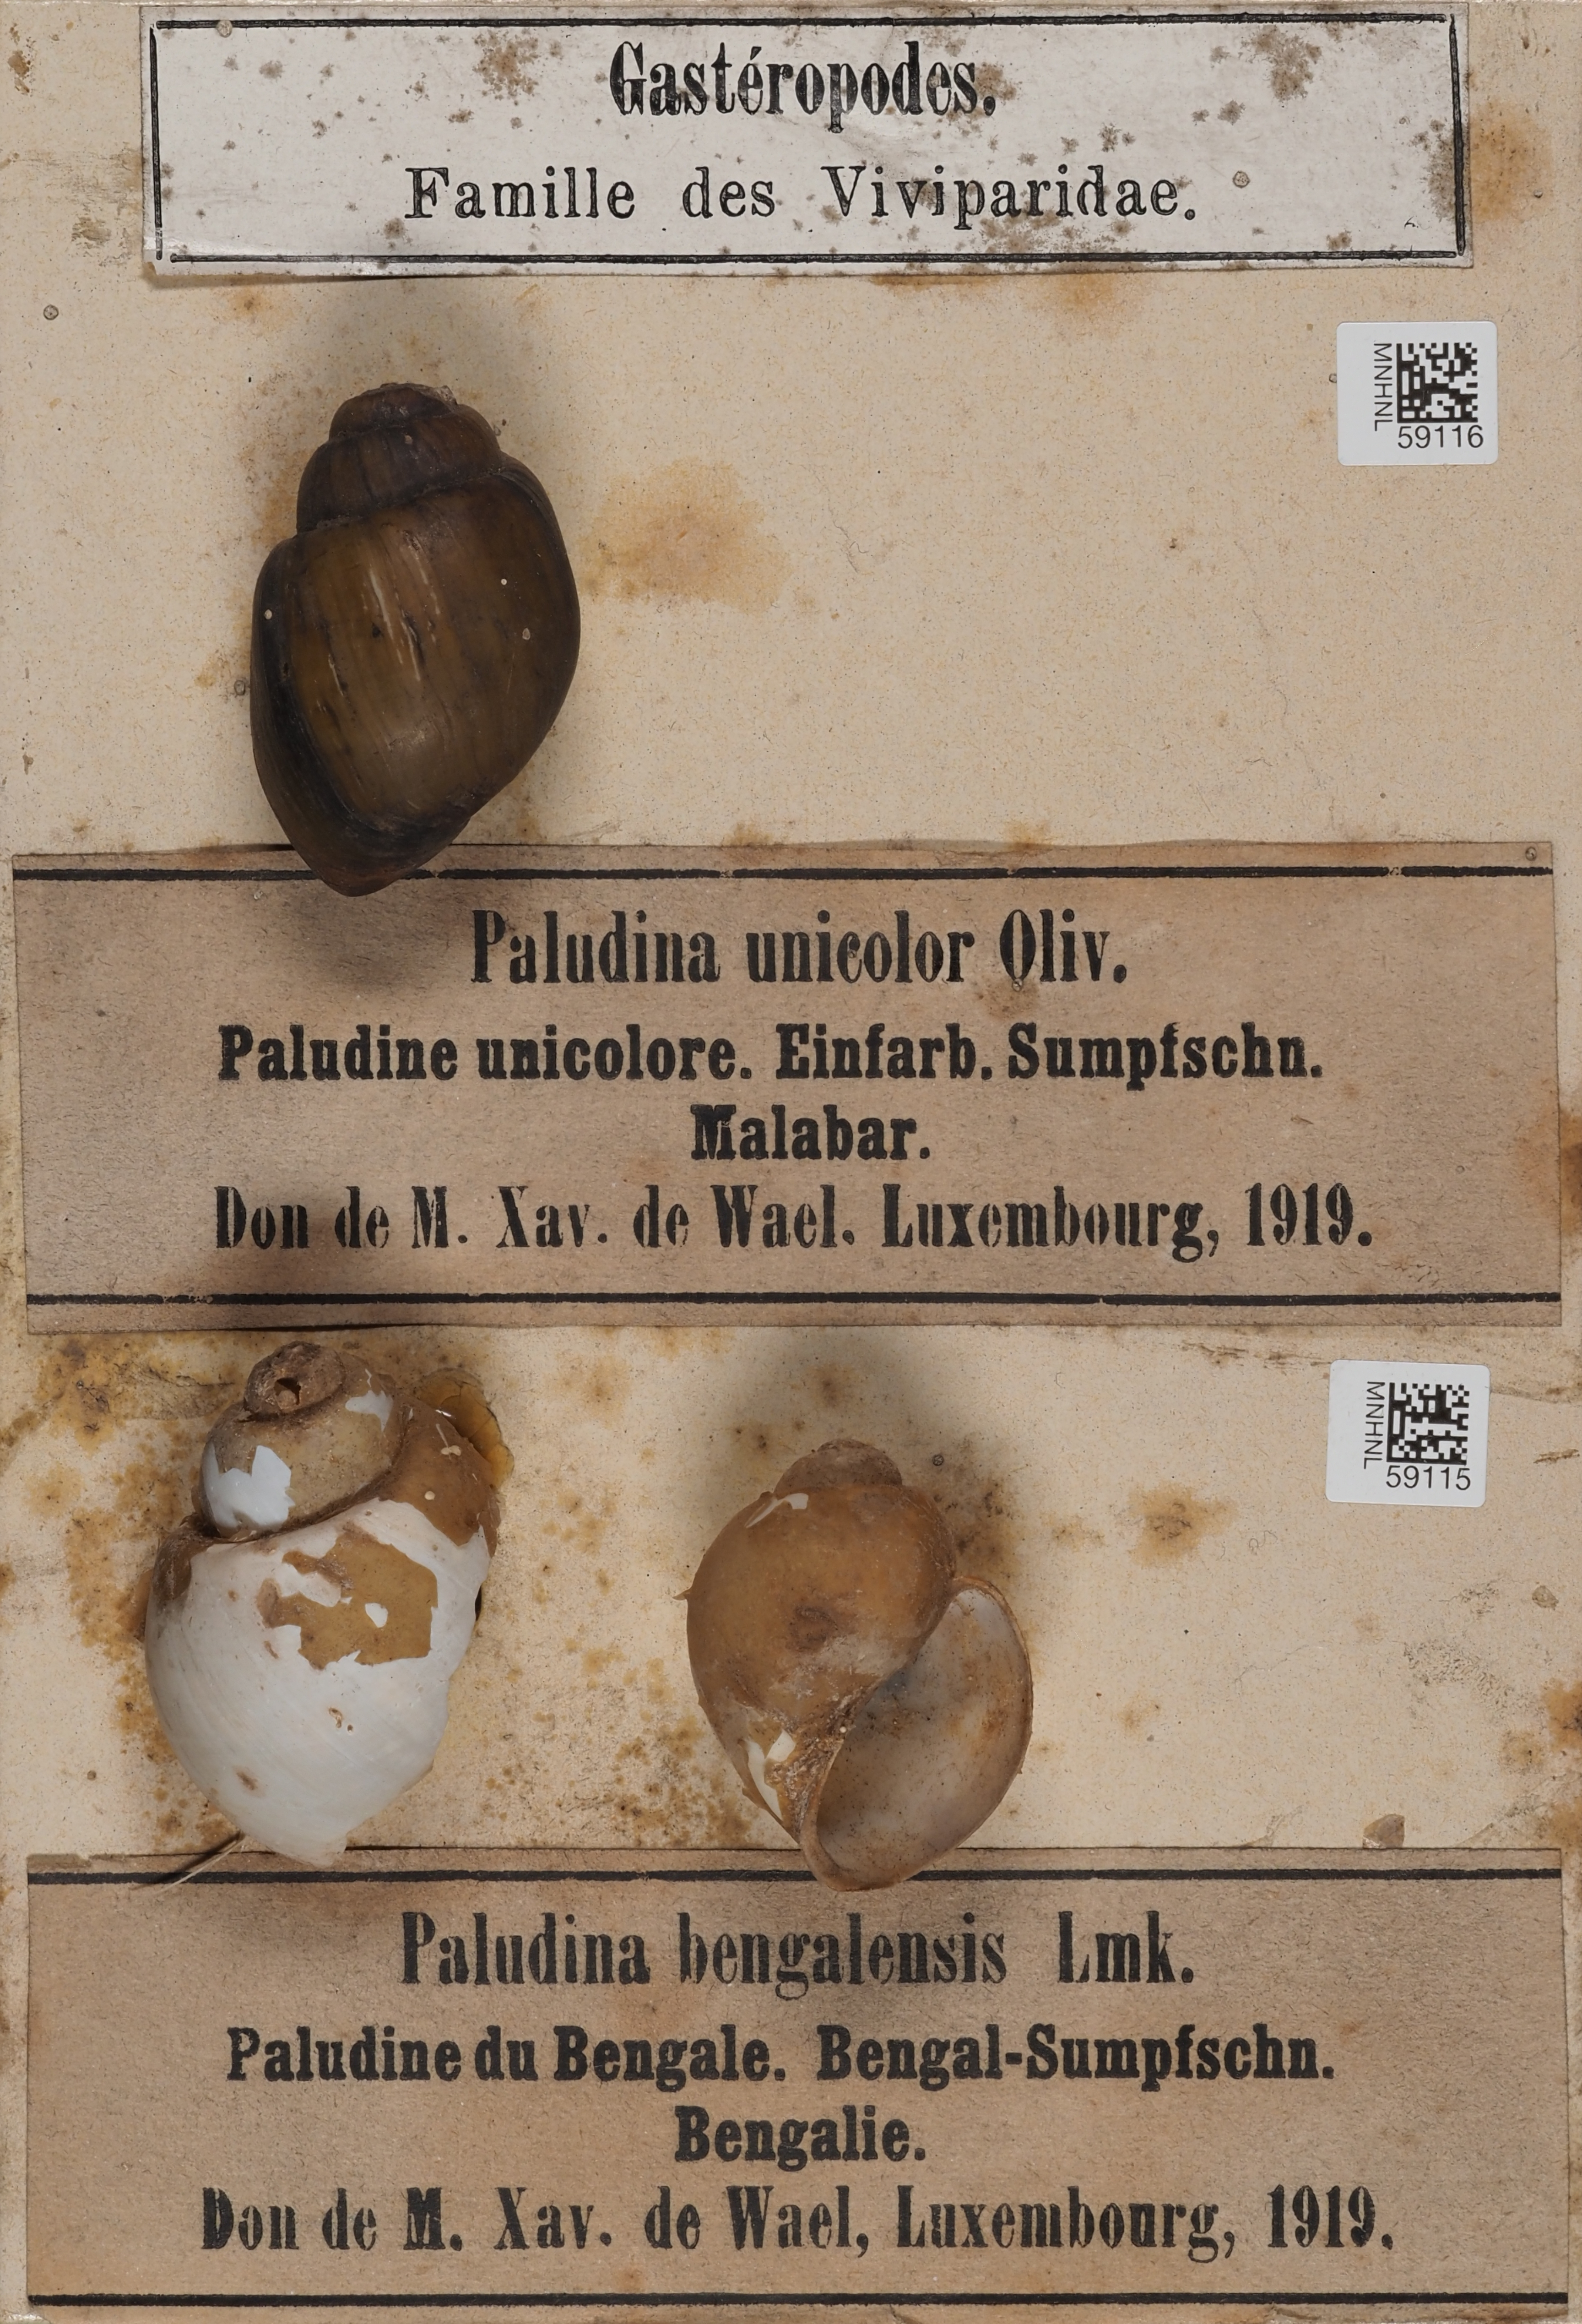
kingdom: Animalia
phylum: Mollusca
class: Gastropoda
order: Architaenioglossa
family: Viviparidae
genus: Bellamya
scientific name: Bellamya unicolor
